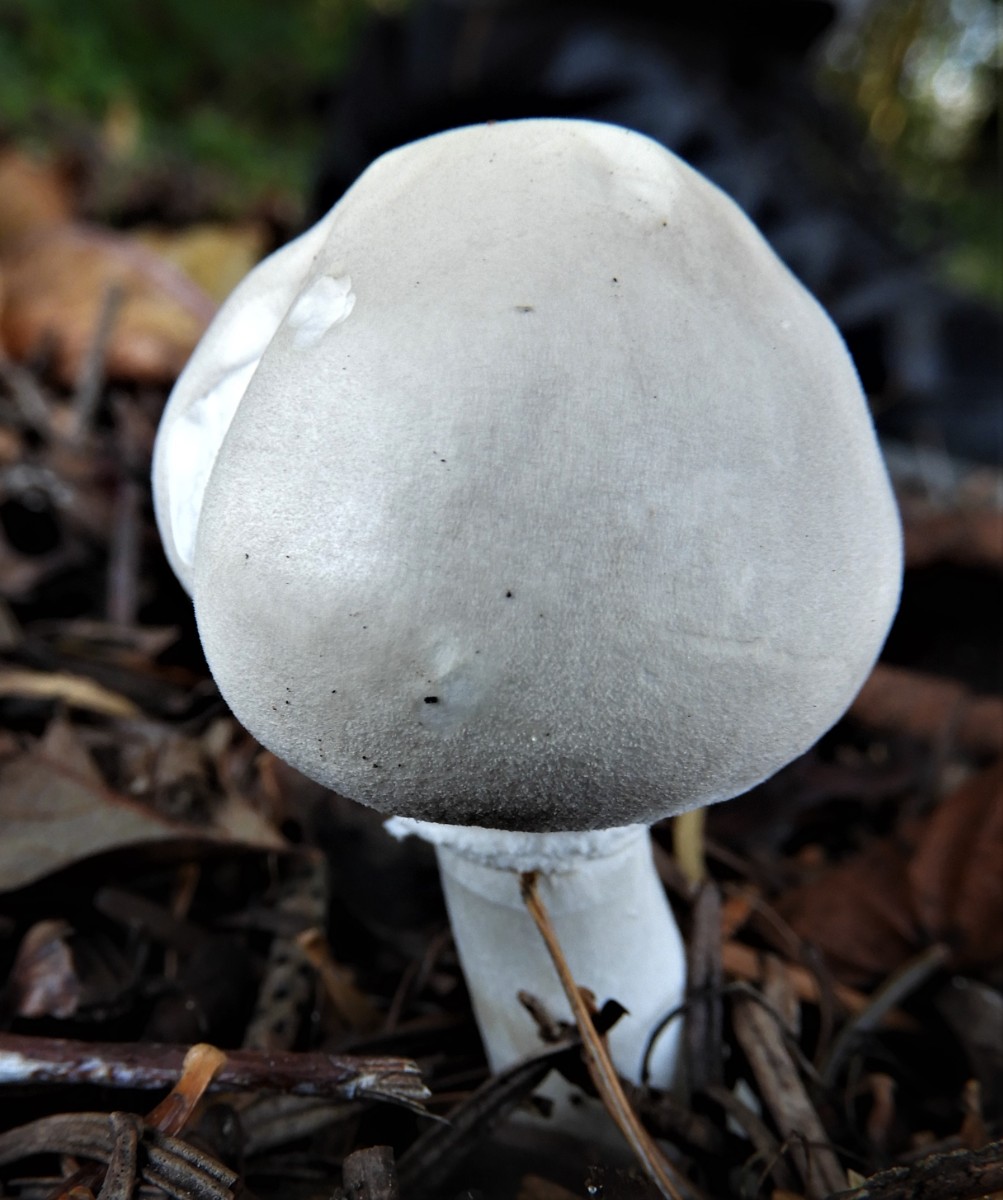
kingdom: Fungi
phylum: Basidiomycota
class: Agaricomycetes
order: Agaricales
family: Agaricaceae
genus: Leucoagaricus
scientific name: Leucoagaricus leucothites
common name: rosabladet silkehat
